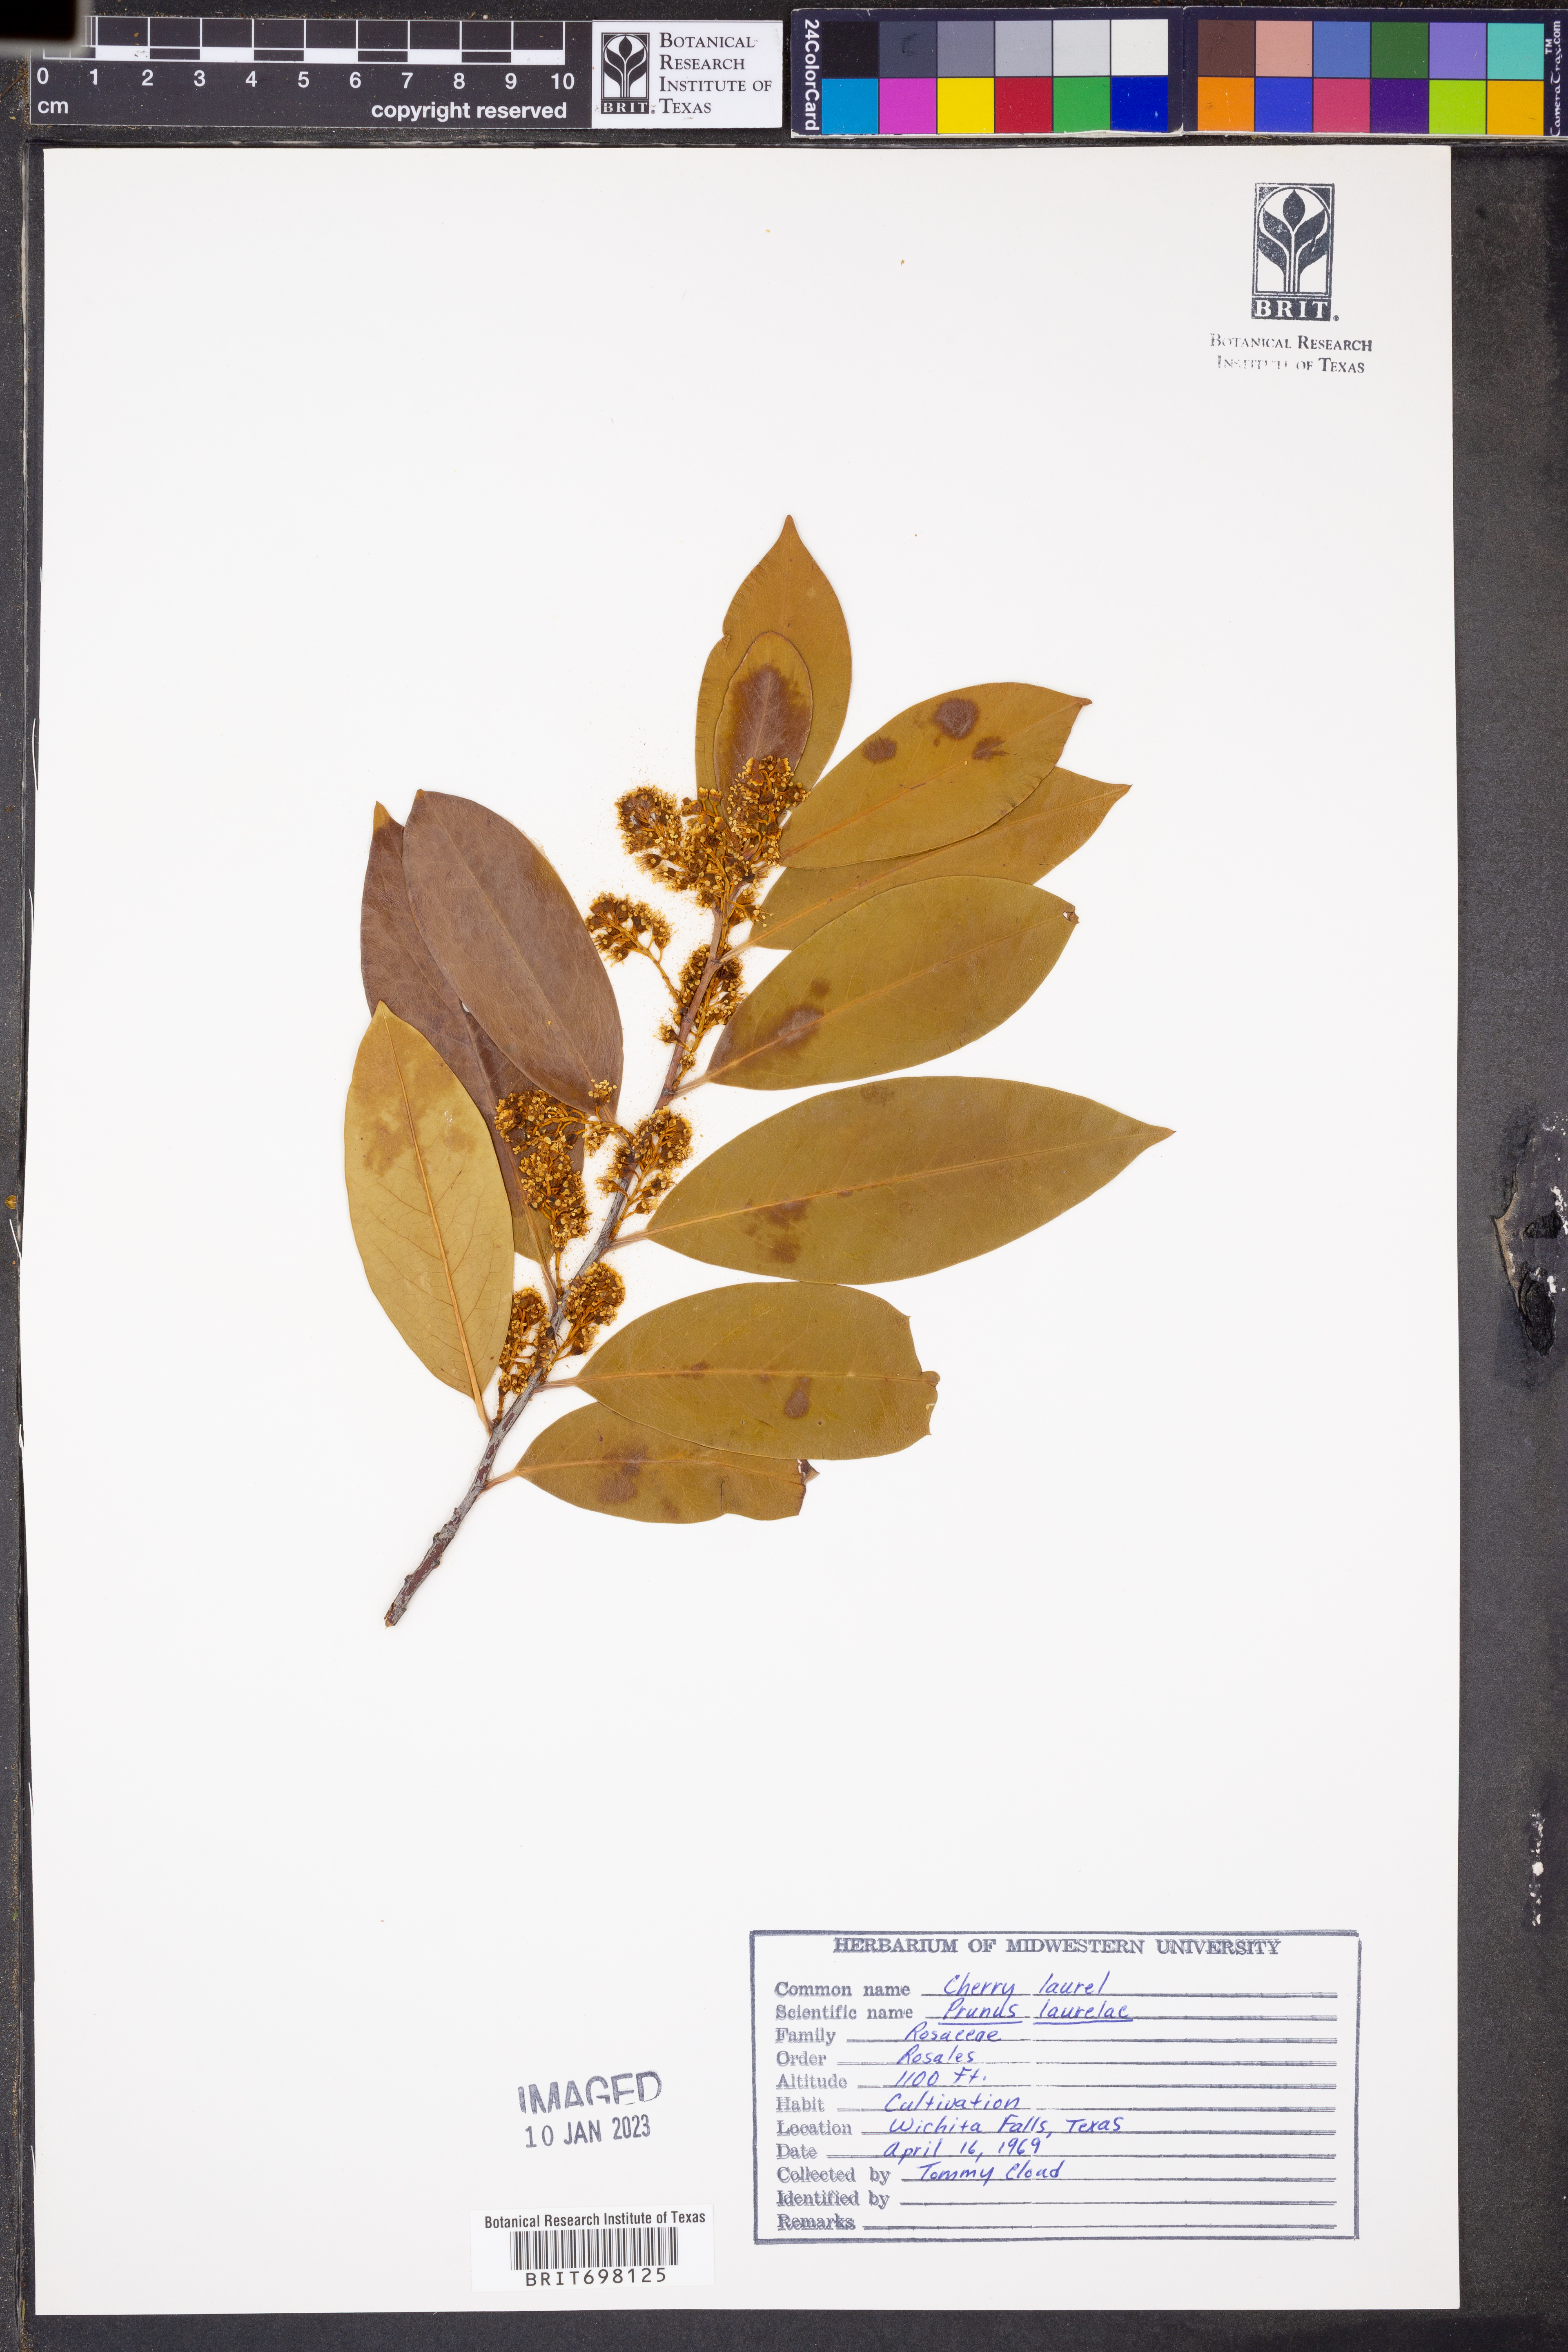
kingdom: Plantae
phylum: Tracheophyta
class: Magnoliopsida
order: Rosales
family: Rosaceae
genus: Prunus
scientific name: Prunus
